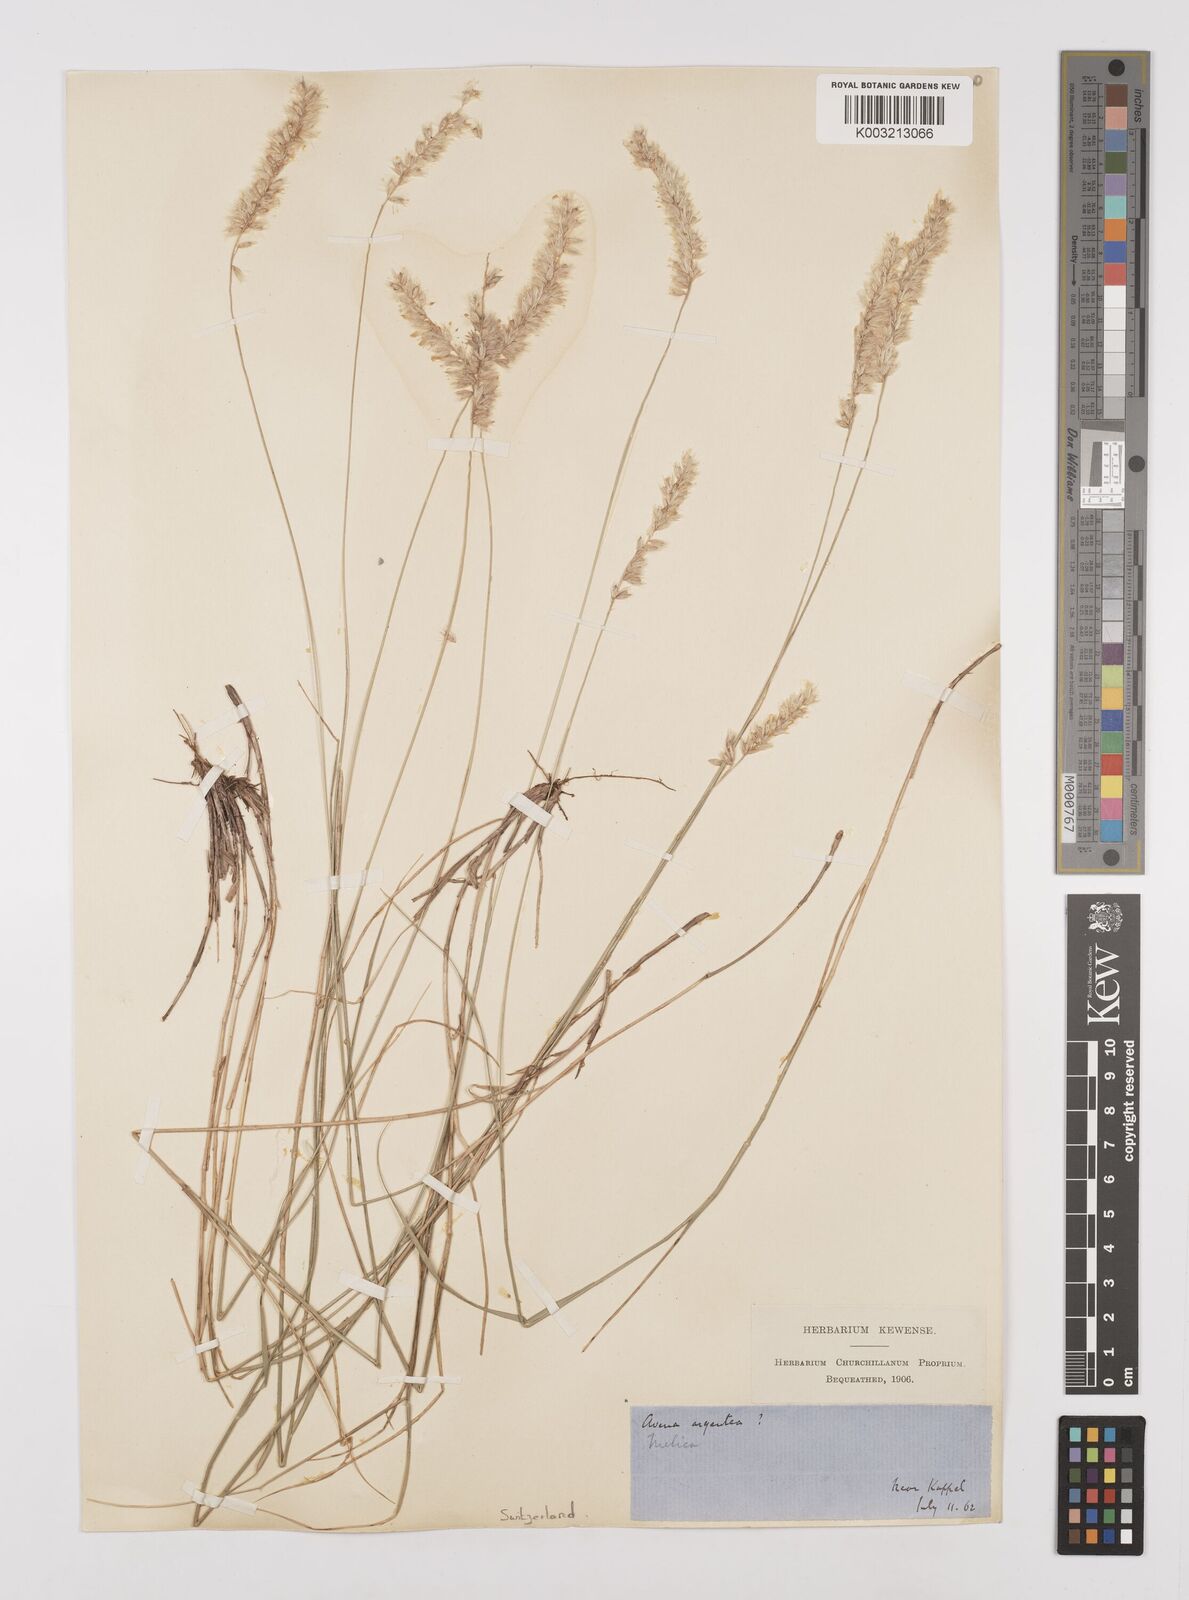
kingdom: Plantae
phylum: Tracheophyta
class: Liliopsida
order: Poales
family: Poaceae
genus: Melica
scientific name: Melica ciliata
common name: Hairy melicgrass
